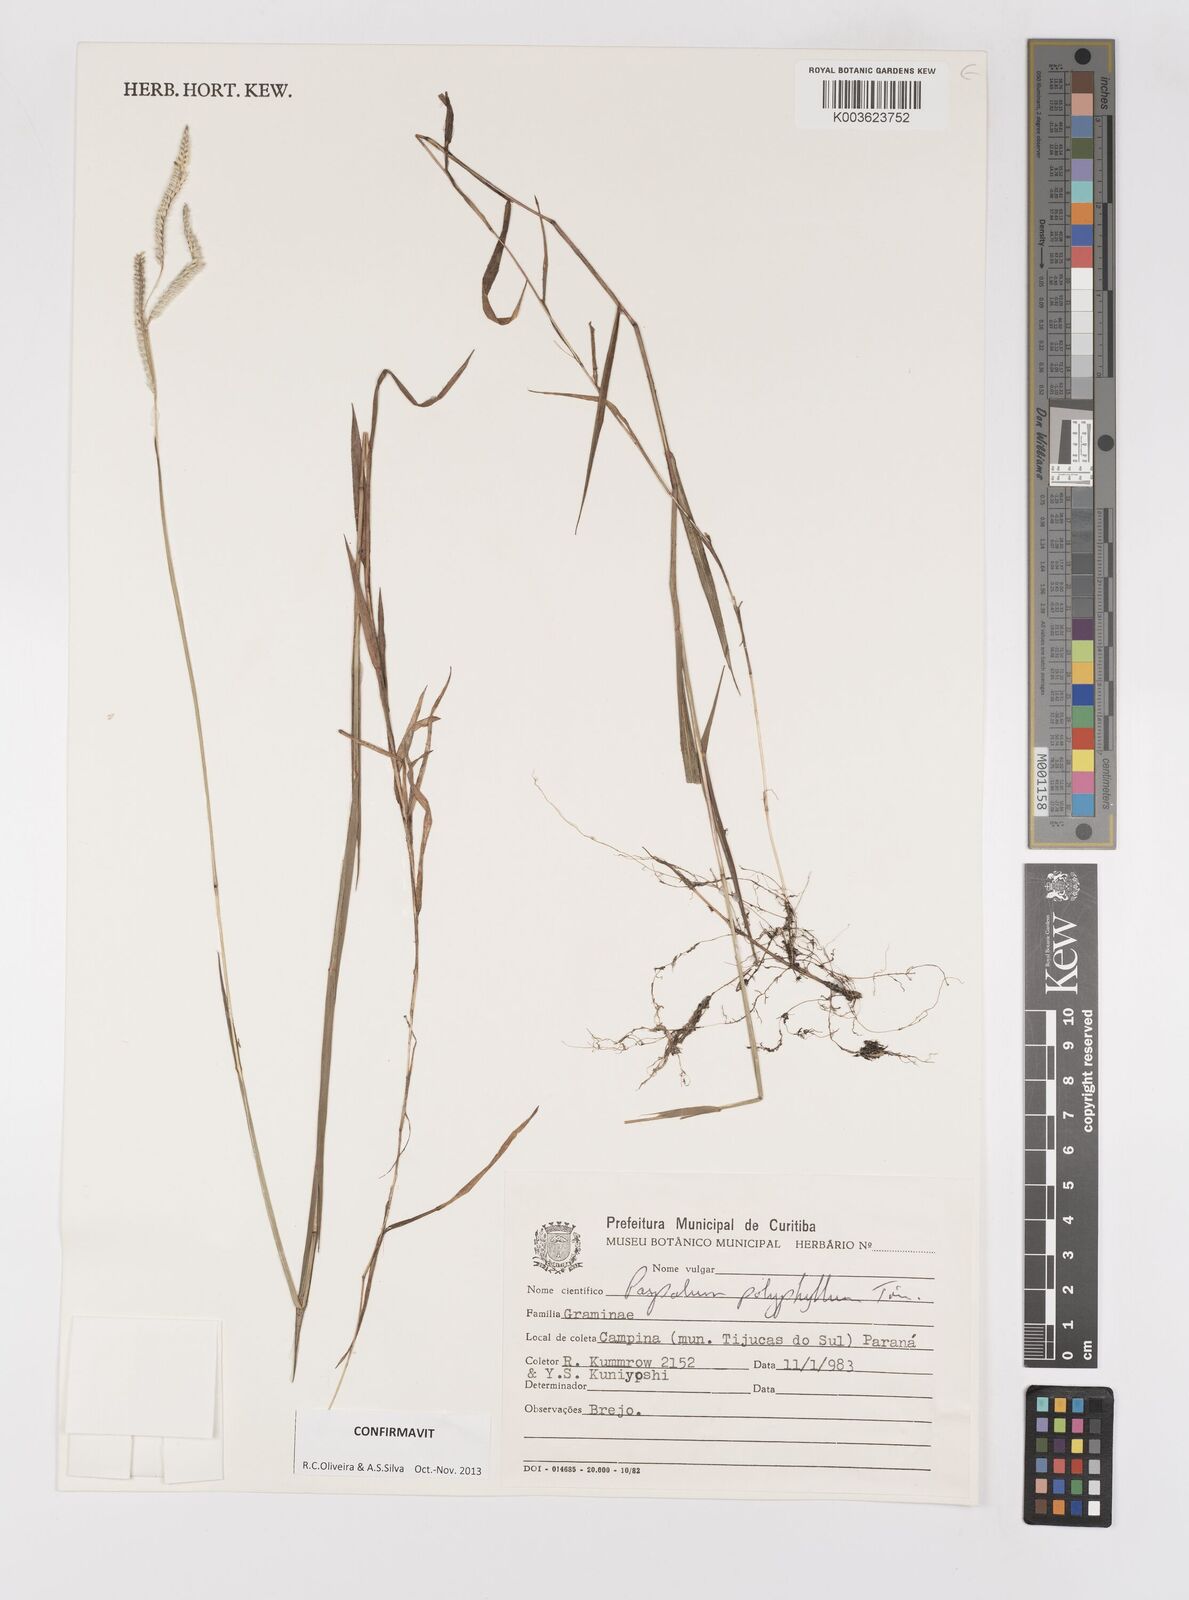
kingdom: Plantae
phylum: Tracheophyta
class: Liliopsida
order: Poales
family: Poaceae
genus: Paspalum
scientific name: Paspalum polyphyllum
